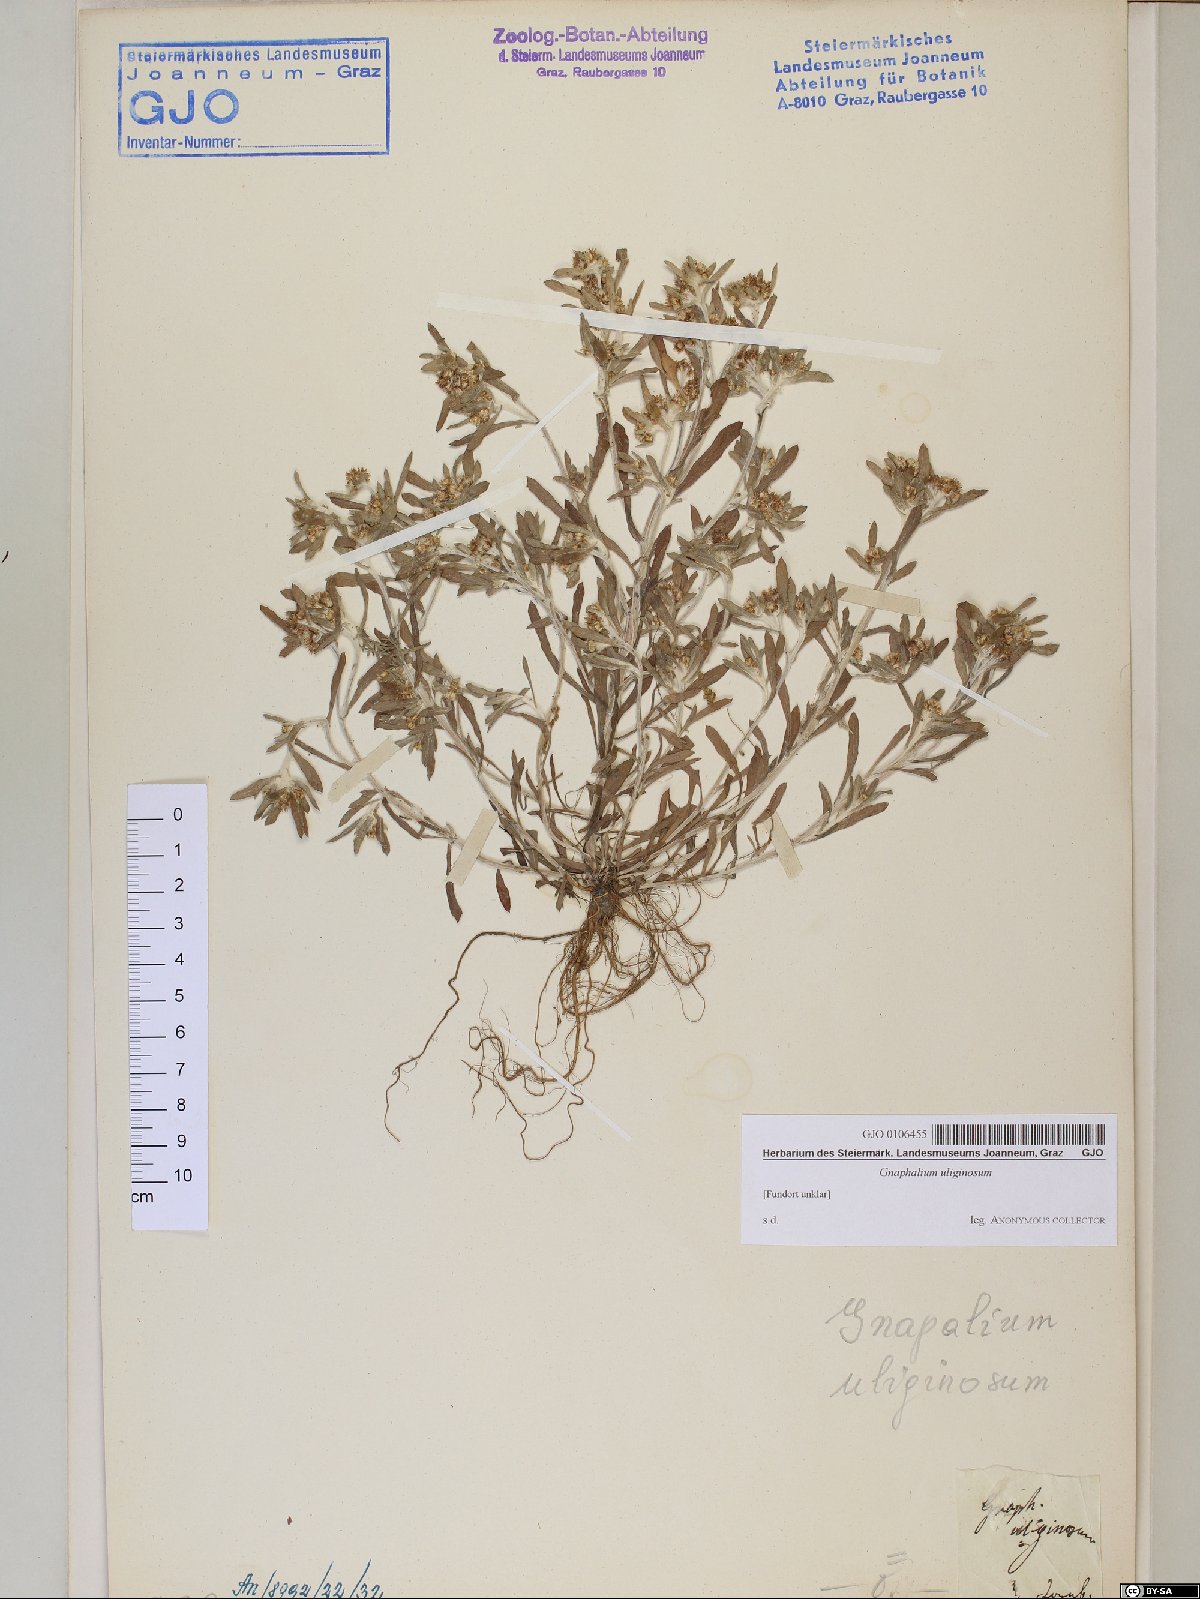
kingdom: Plantae
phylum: Tracheophyta
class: Magnoliopsida
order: Asterales
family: Asteraceae
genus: Gnaphalium
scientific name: Gnaphalium uliginosum
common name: Marsh cudweed
